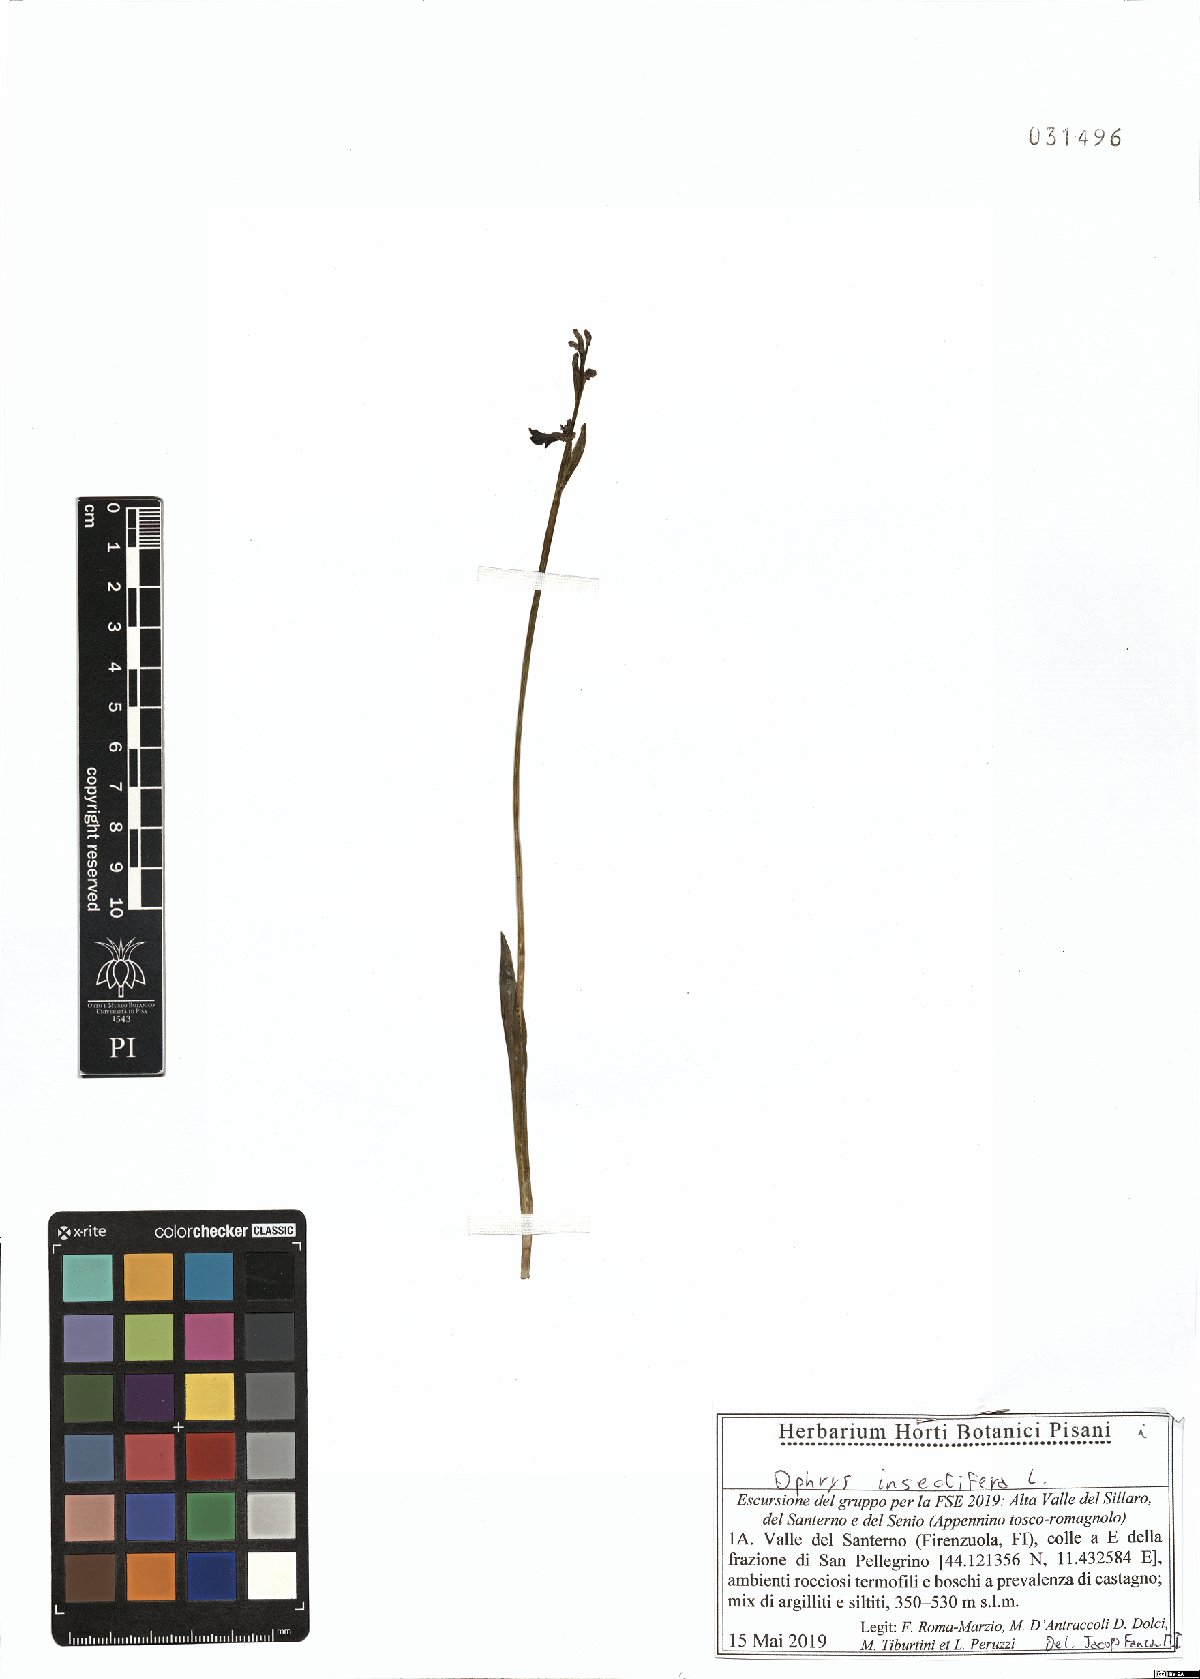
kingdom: Plantae
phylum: Tracheophyta
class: Liliopsida
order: Asparagales
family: Orchidaceae
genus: Ophrys
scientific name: Ophrys insectifera
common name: Fly orchid
